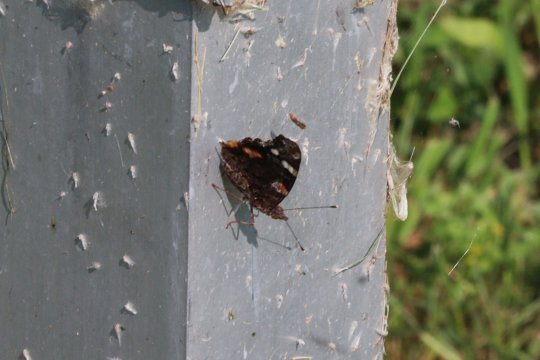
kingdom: Animalia
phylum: Arthropoda
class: Insecta
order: Lepidoptera
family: Nymphalidae
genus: Vanessa
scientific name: Vanessa atalanta
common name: Red Admiral
